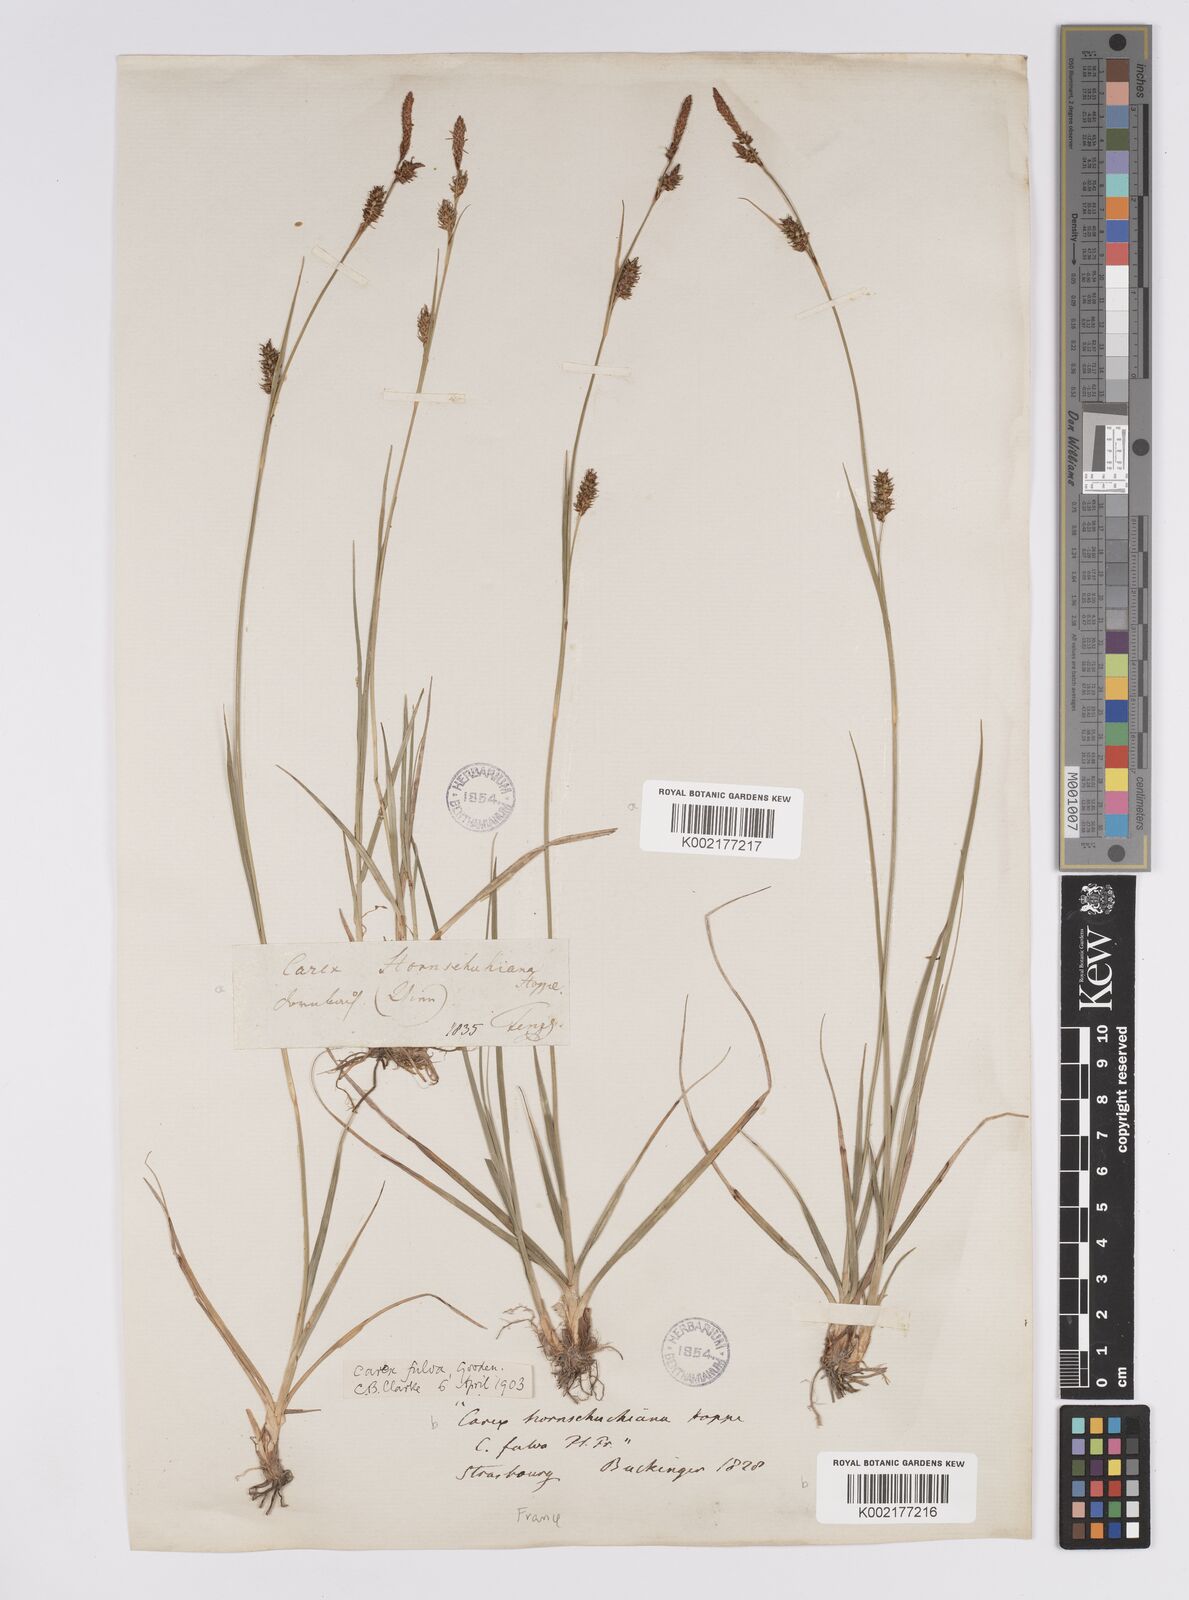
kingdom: Plantae
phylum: Tracheophyta
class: Liliopsida
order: Poales
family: Cyperaceae
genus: Carex
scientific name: Carex hostiana
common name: Tawny sedge
